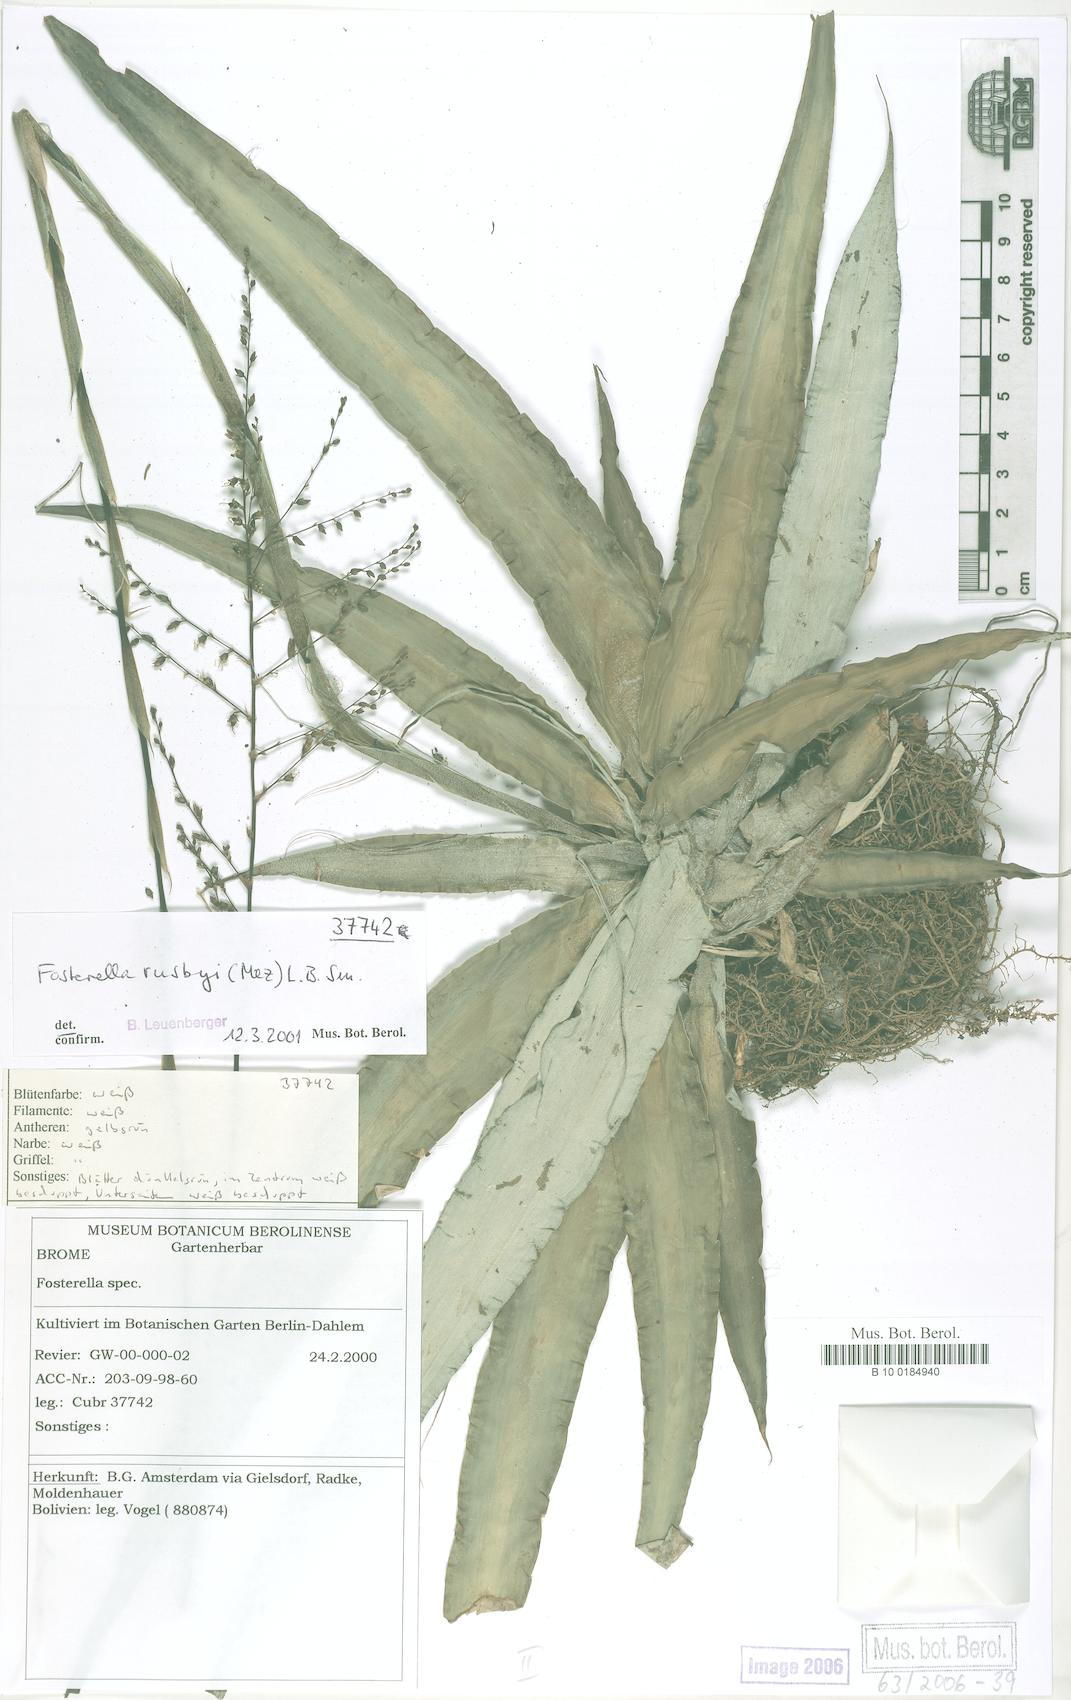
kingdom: Plantae
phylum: Tracheophyta
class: Liliopsida
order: Poales
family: Bromeliaceae
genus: Fosterella
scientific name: Fosterella rusbyi
